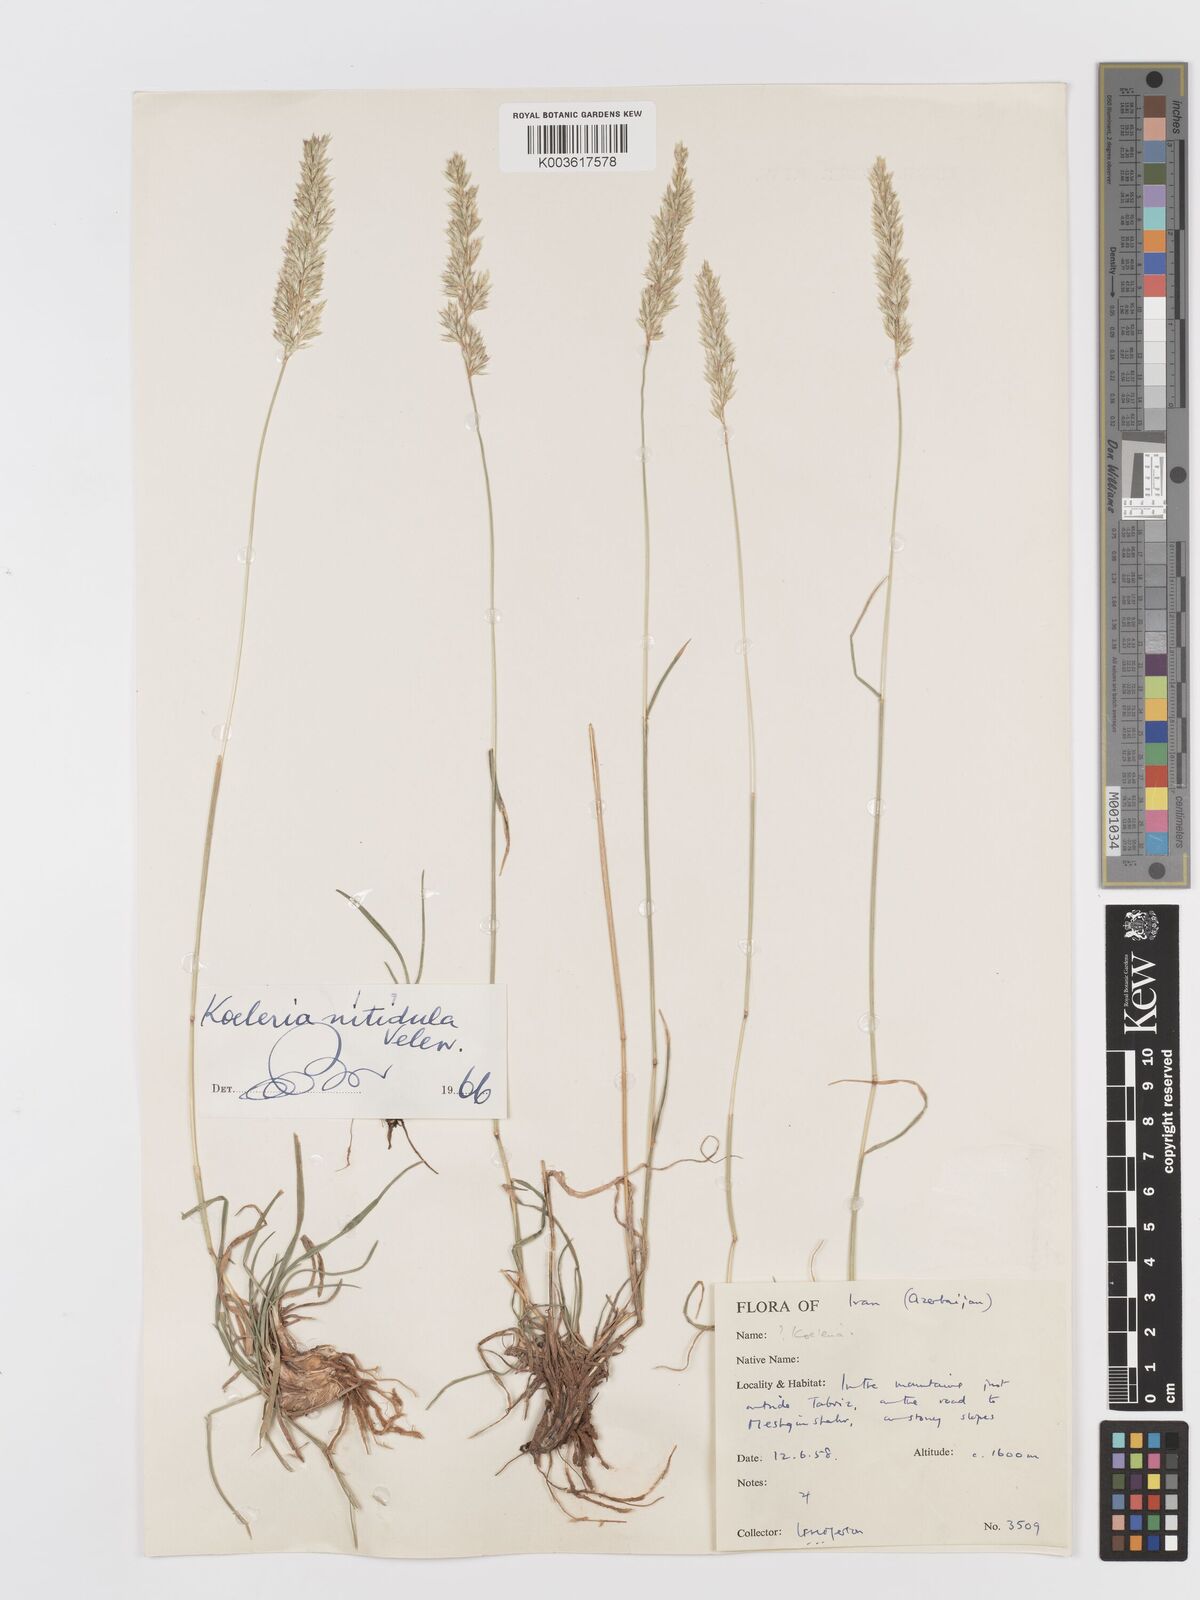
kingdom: Plantae
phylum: Tracheophyta
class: Liliopsida
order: Poales
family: Poaceae
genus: Koeleria
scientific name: Koeleria nitidula
